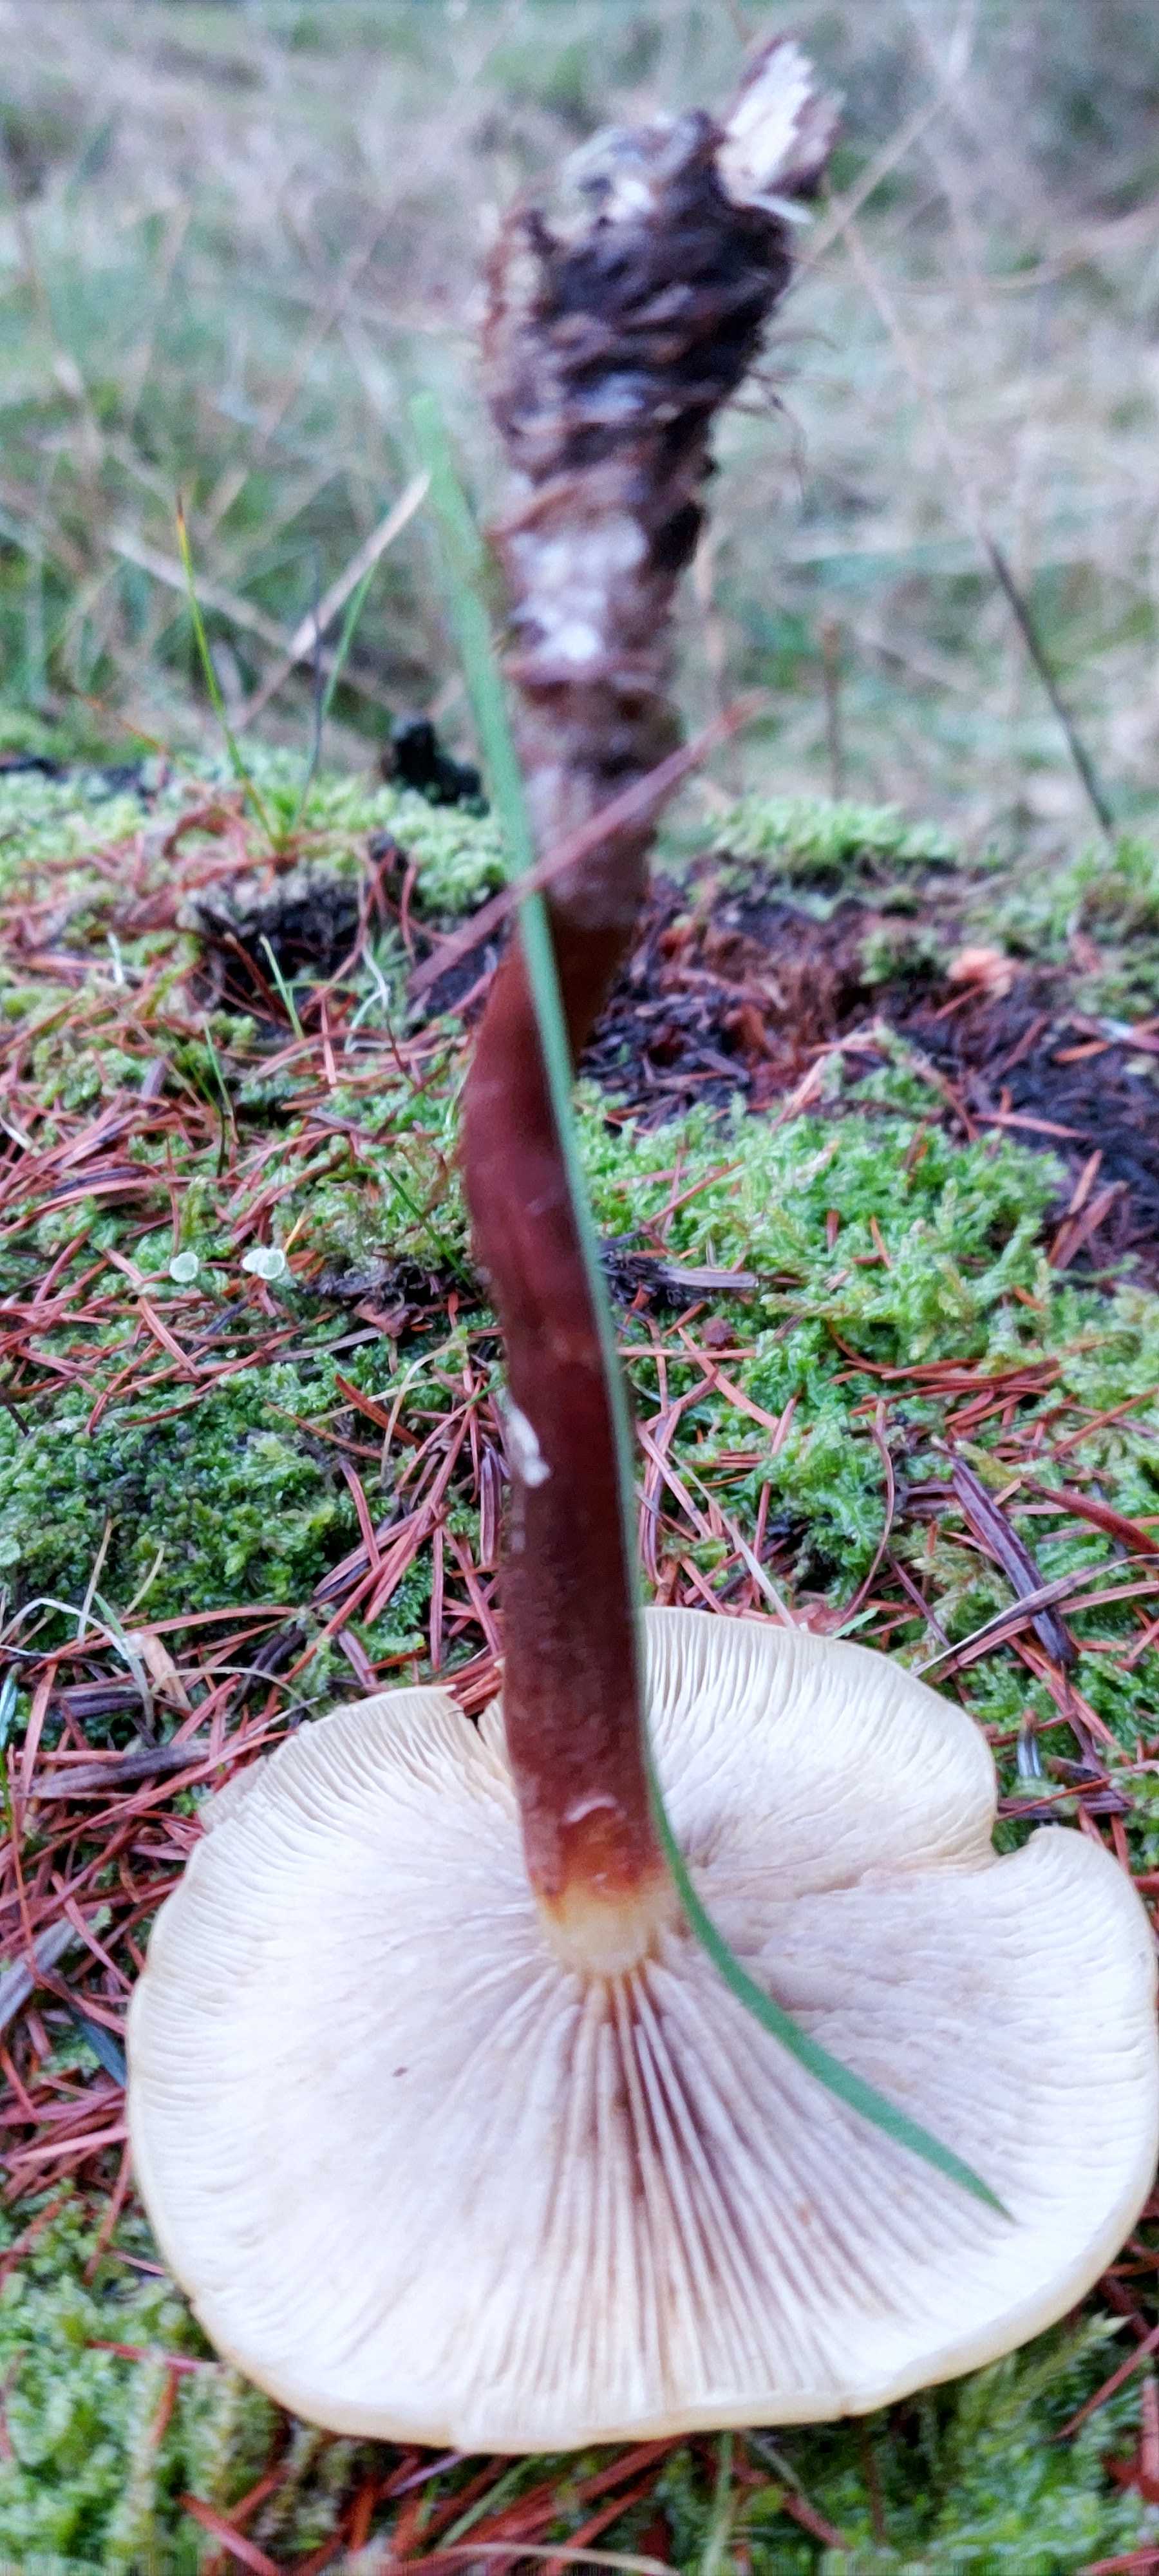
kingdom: Fungi
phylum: Basidiomycota
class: Agaricomycetes
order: Agaricales
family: Strophariaceae
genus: Hypholoma
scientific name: Hypholoma capnoides
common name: gran-svovlhat
